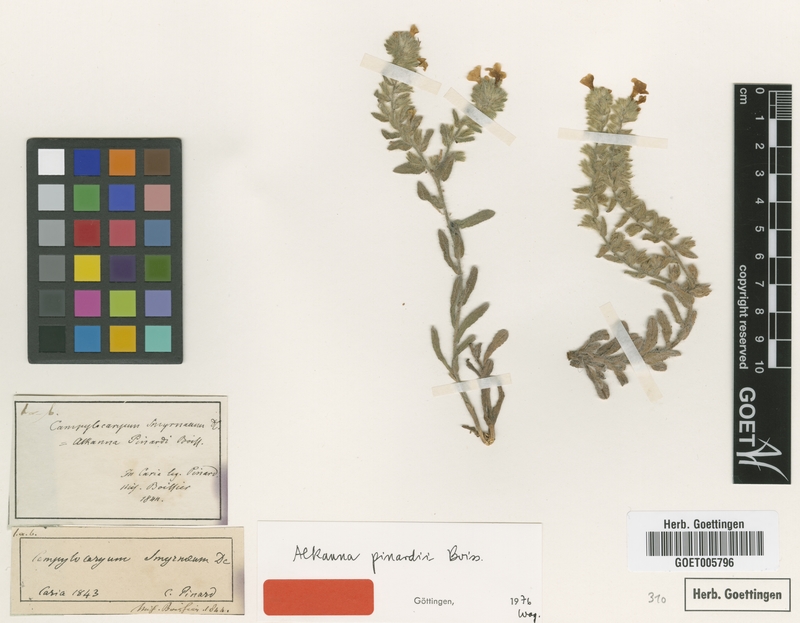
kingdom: Plantae
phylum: Tracheophyta
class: Magnoliopsida
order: Boraginales
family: Boraginaceae
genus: Alkanna
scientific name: Alkanna pinardii
